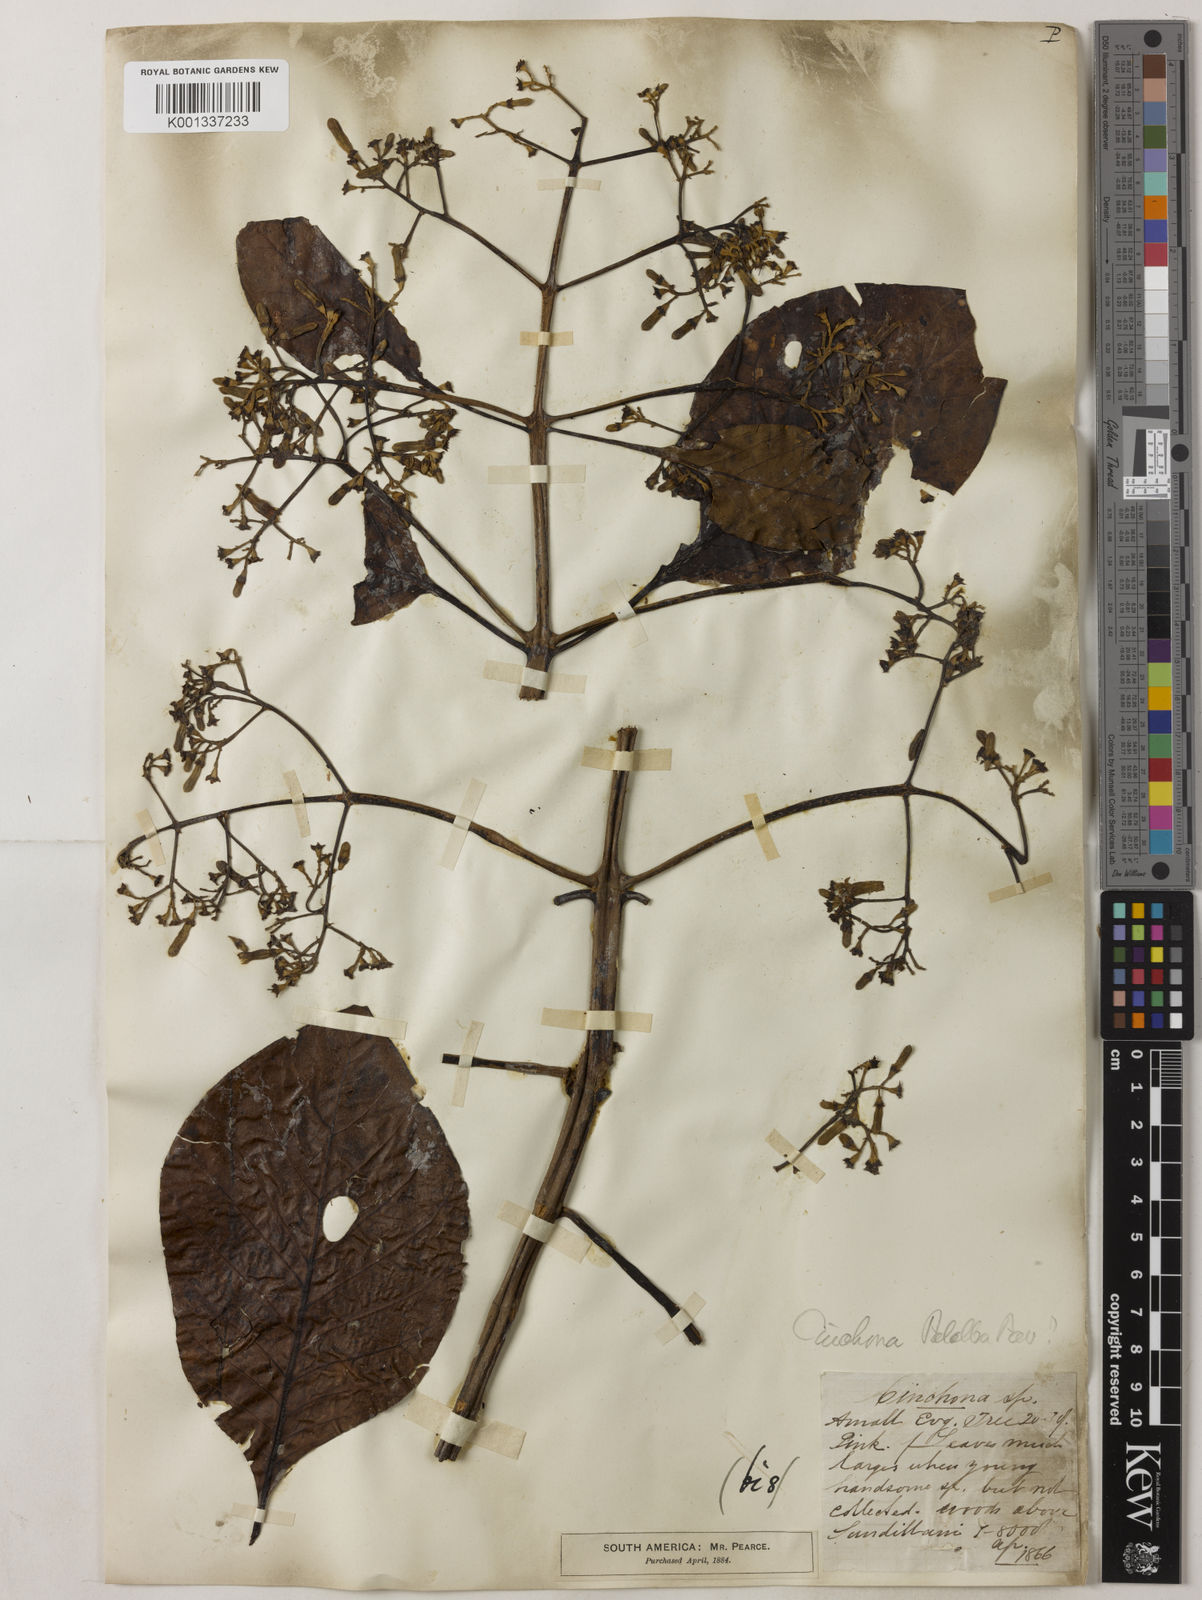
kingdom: Plantae
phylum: Tracheophyta
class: Magnoliopsida
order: Gentianales
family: Rubiaceae
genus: Cinchona
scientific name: Cinchona micrantha
